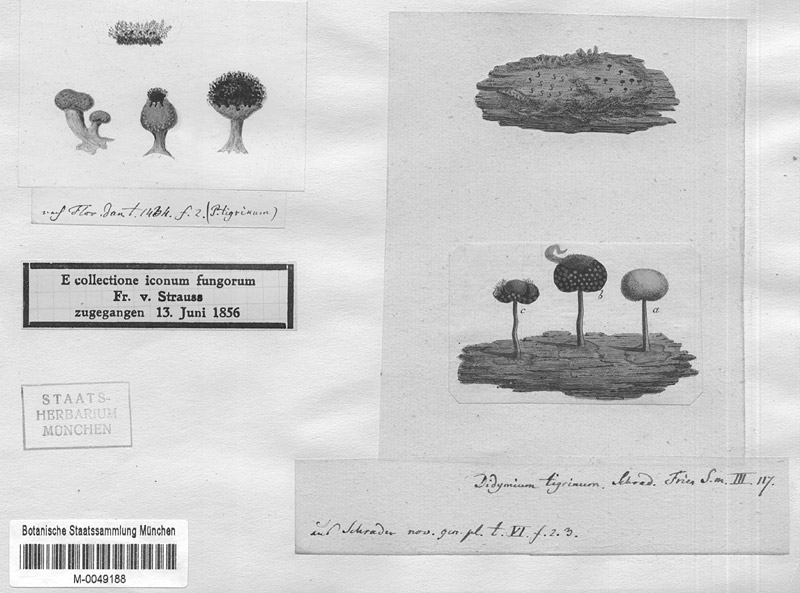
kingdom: Protozoa
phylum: Mycetozoa
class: Myxomycetes
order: Physarales
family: Didymiaceae
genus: Lepidoderma
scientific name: Lepidoderma tigrinum
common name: Lepidoderma crassipes
